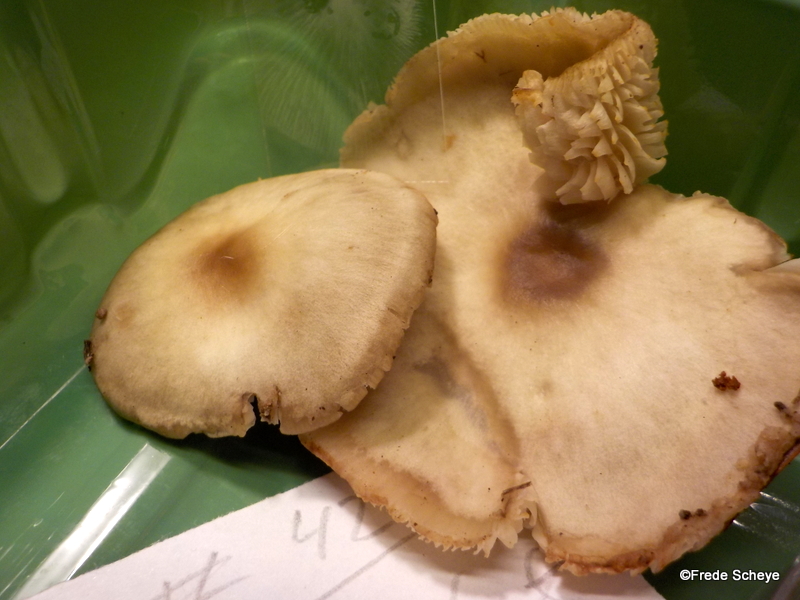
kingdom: Fungi
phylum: Basidiomycota
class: Agaricomycetes
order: Agaricales
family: Omphalotaceae
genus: Rhodocollybia
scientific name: Rhodocollybia asema
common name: horngrå fladhat
